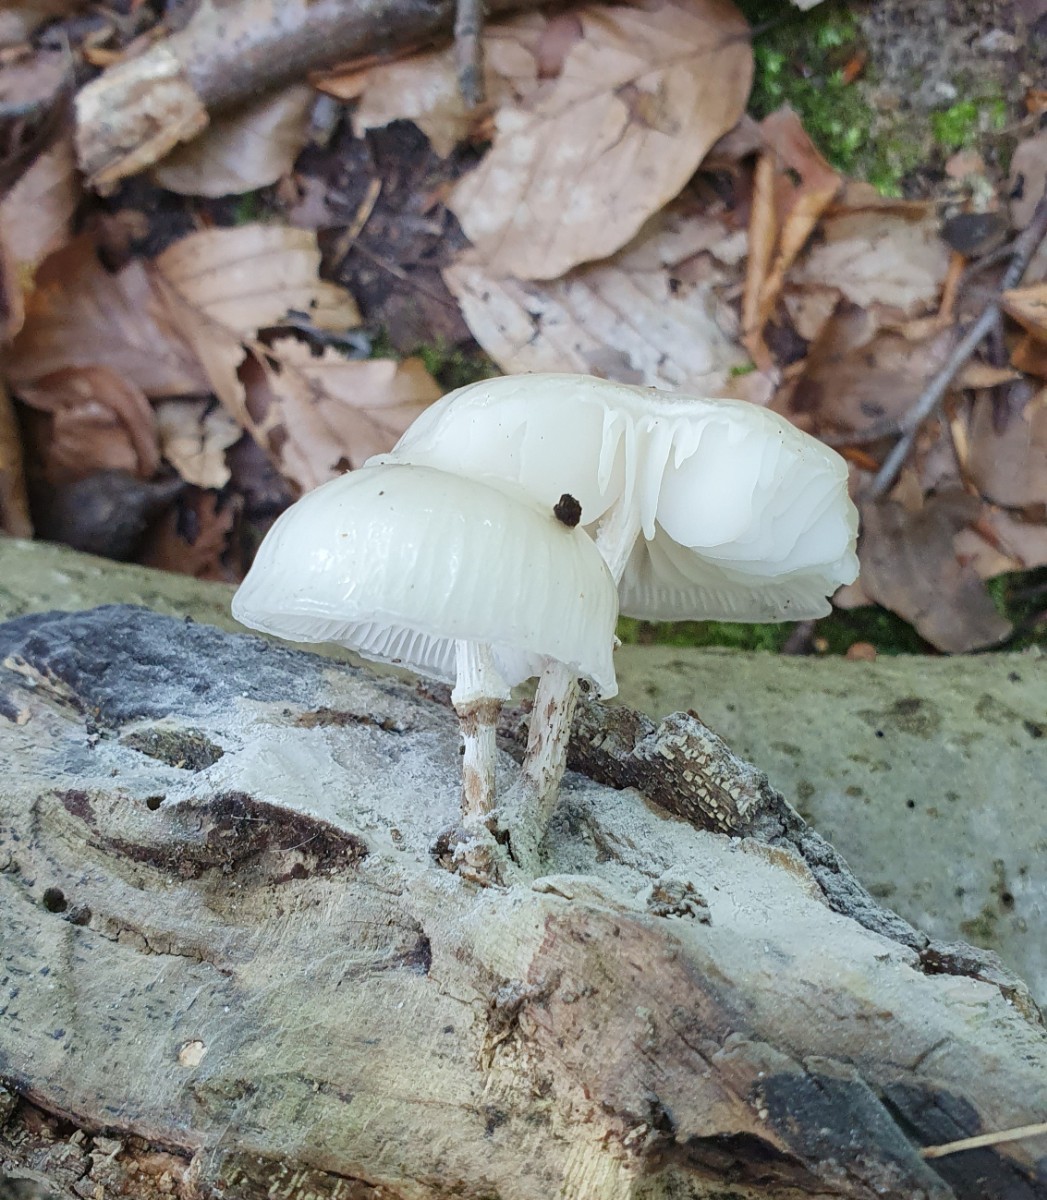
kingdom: Fungi
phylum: Basidiomycota
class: Agaricomycetes
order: Agaricales
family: Physalacriaceae
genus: Mucidula
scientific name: Mucidula mucida
